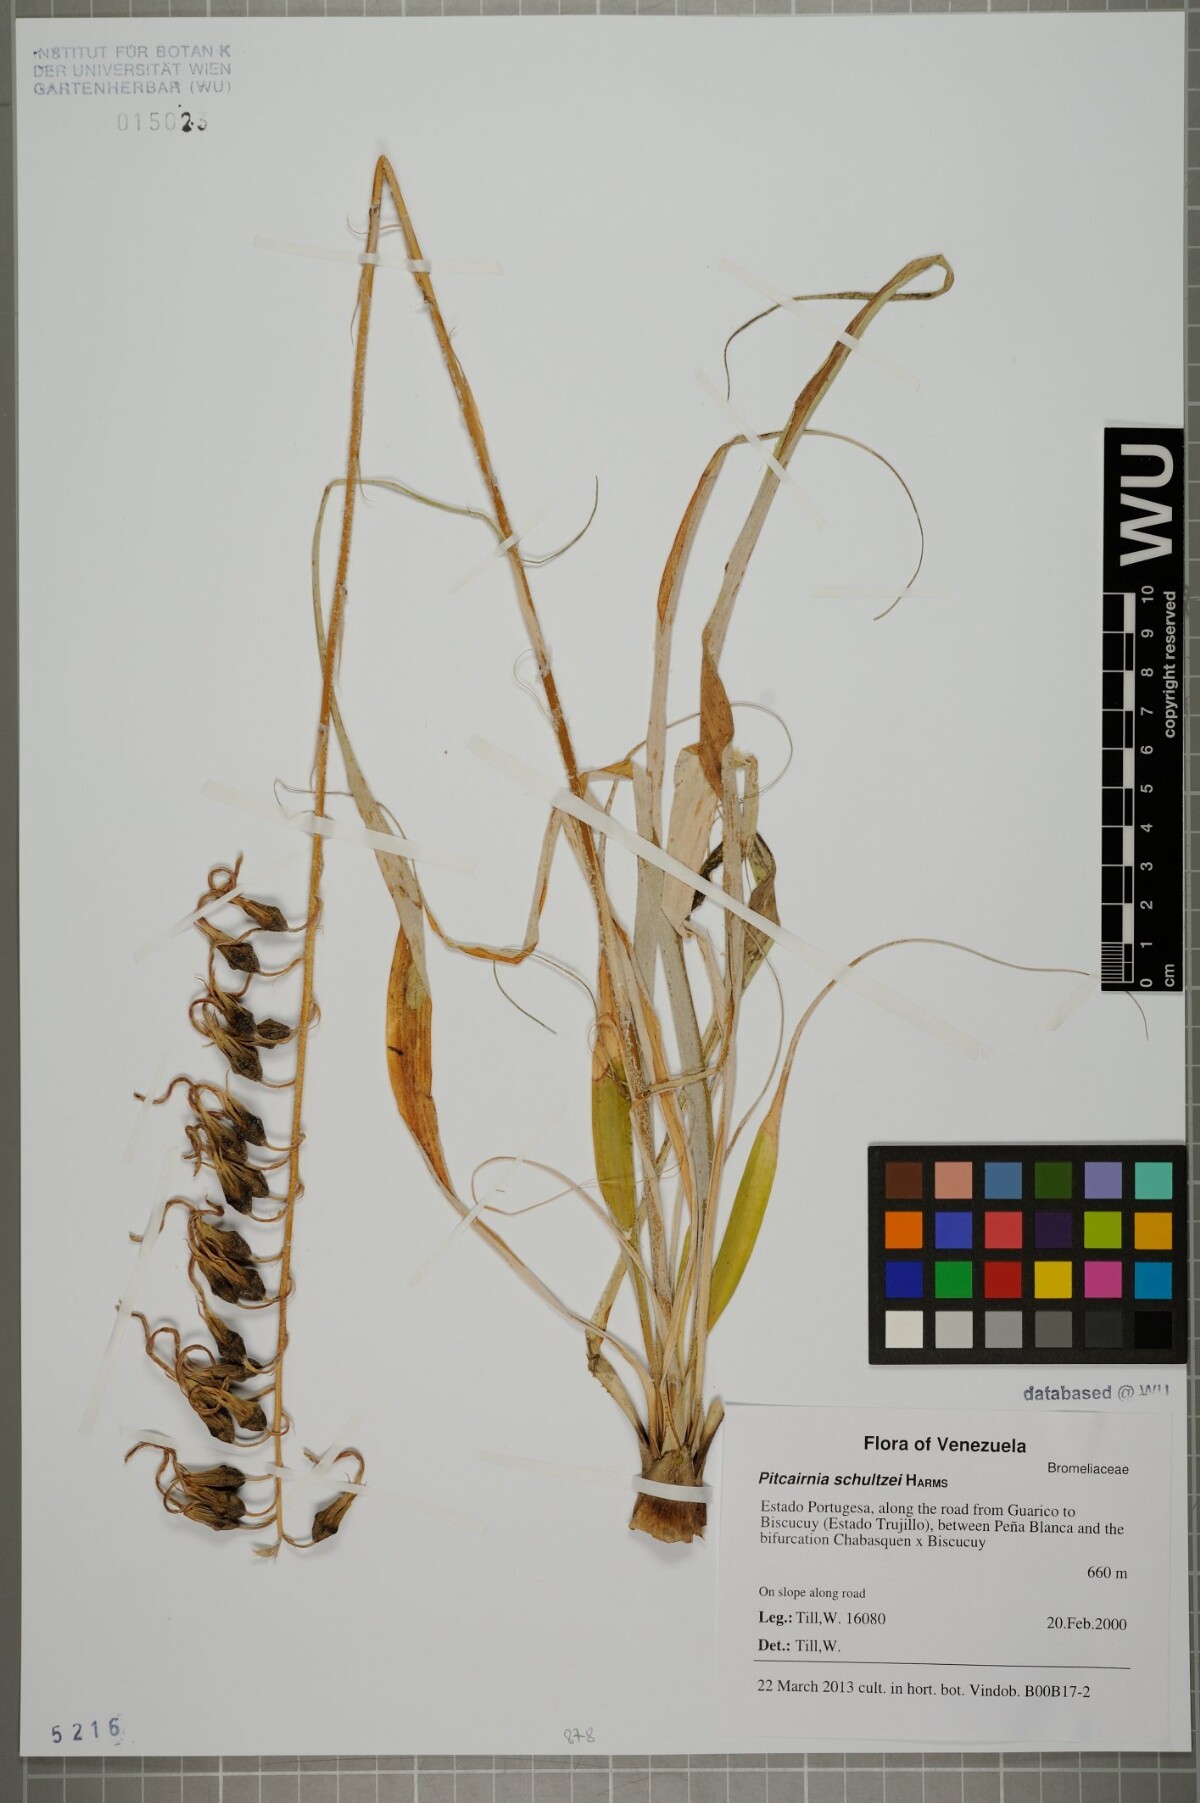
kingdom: Plantae
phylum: Tracheophyta
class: Liliopsida
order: Poales
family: Bromeliaceae
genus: Pitcairnia
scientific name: Pitcairnia schultzei
